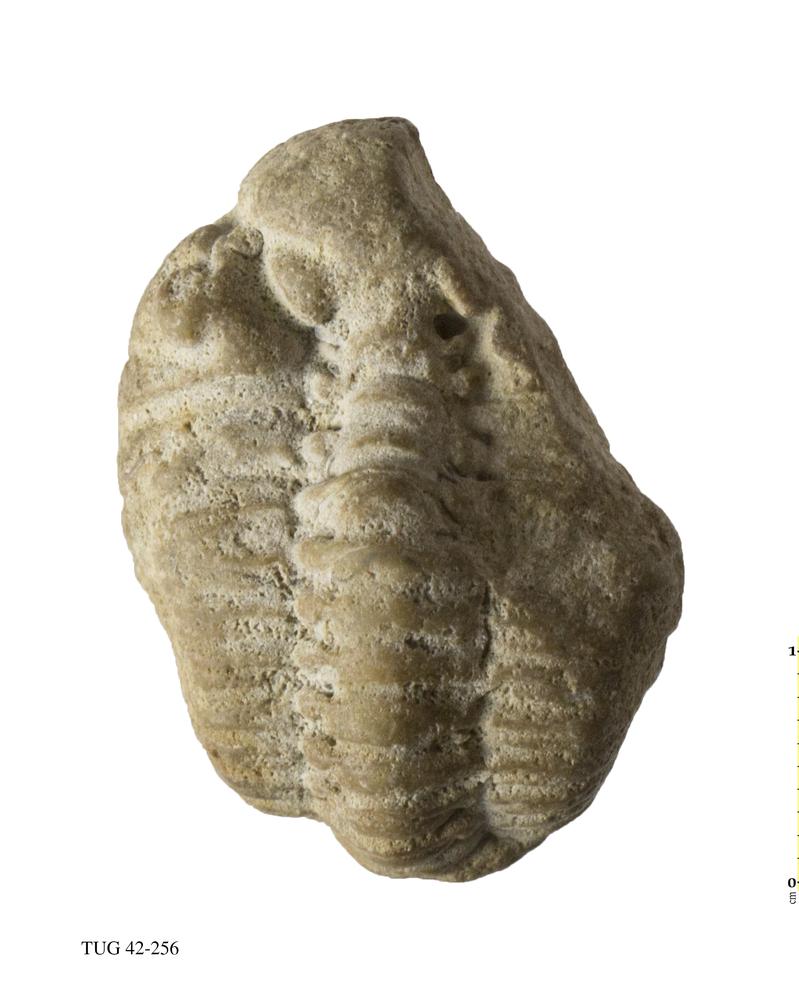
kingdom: Animalia
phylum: Arthropoda
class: Trilobita
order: Phacopida
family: Phacopidae
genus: Phacops
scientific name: Phacops
